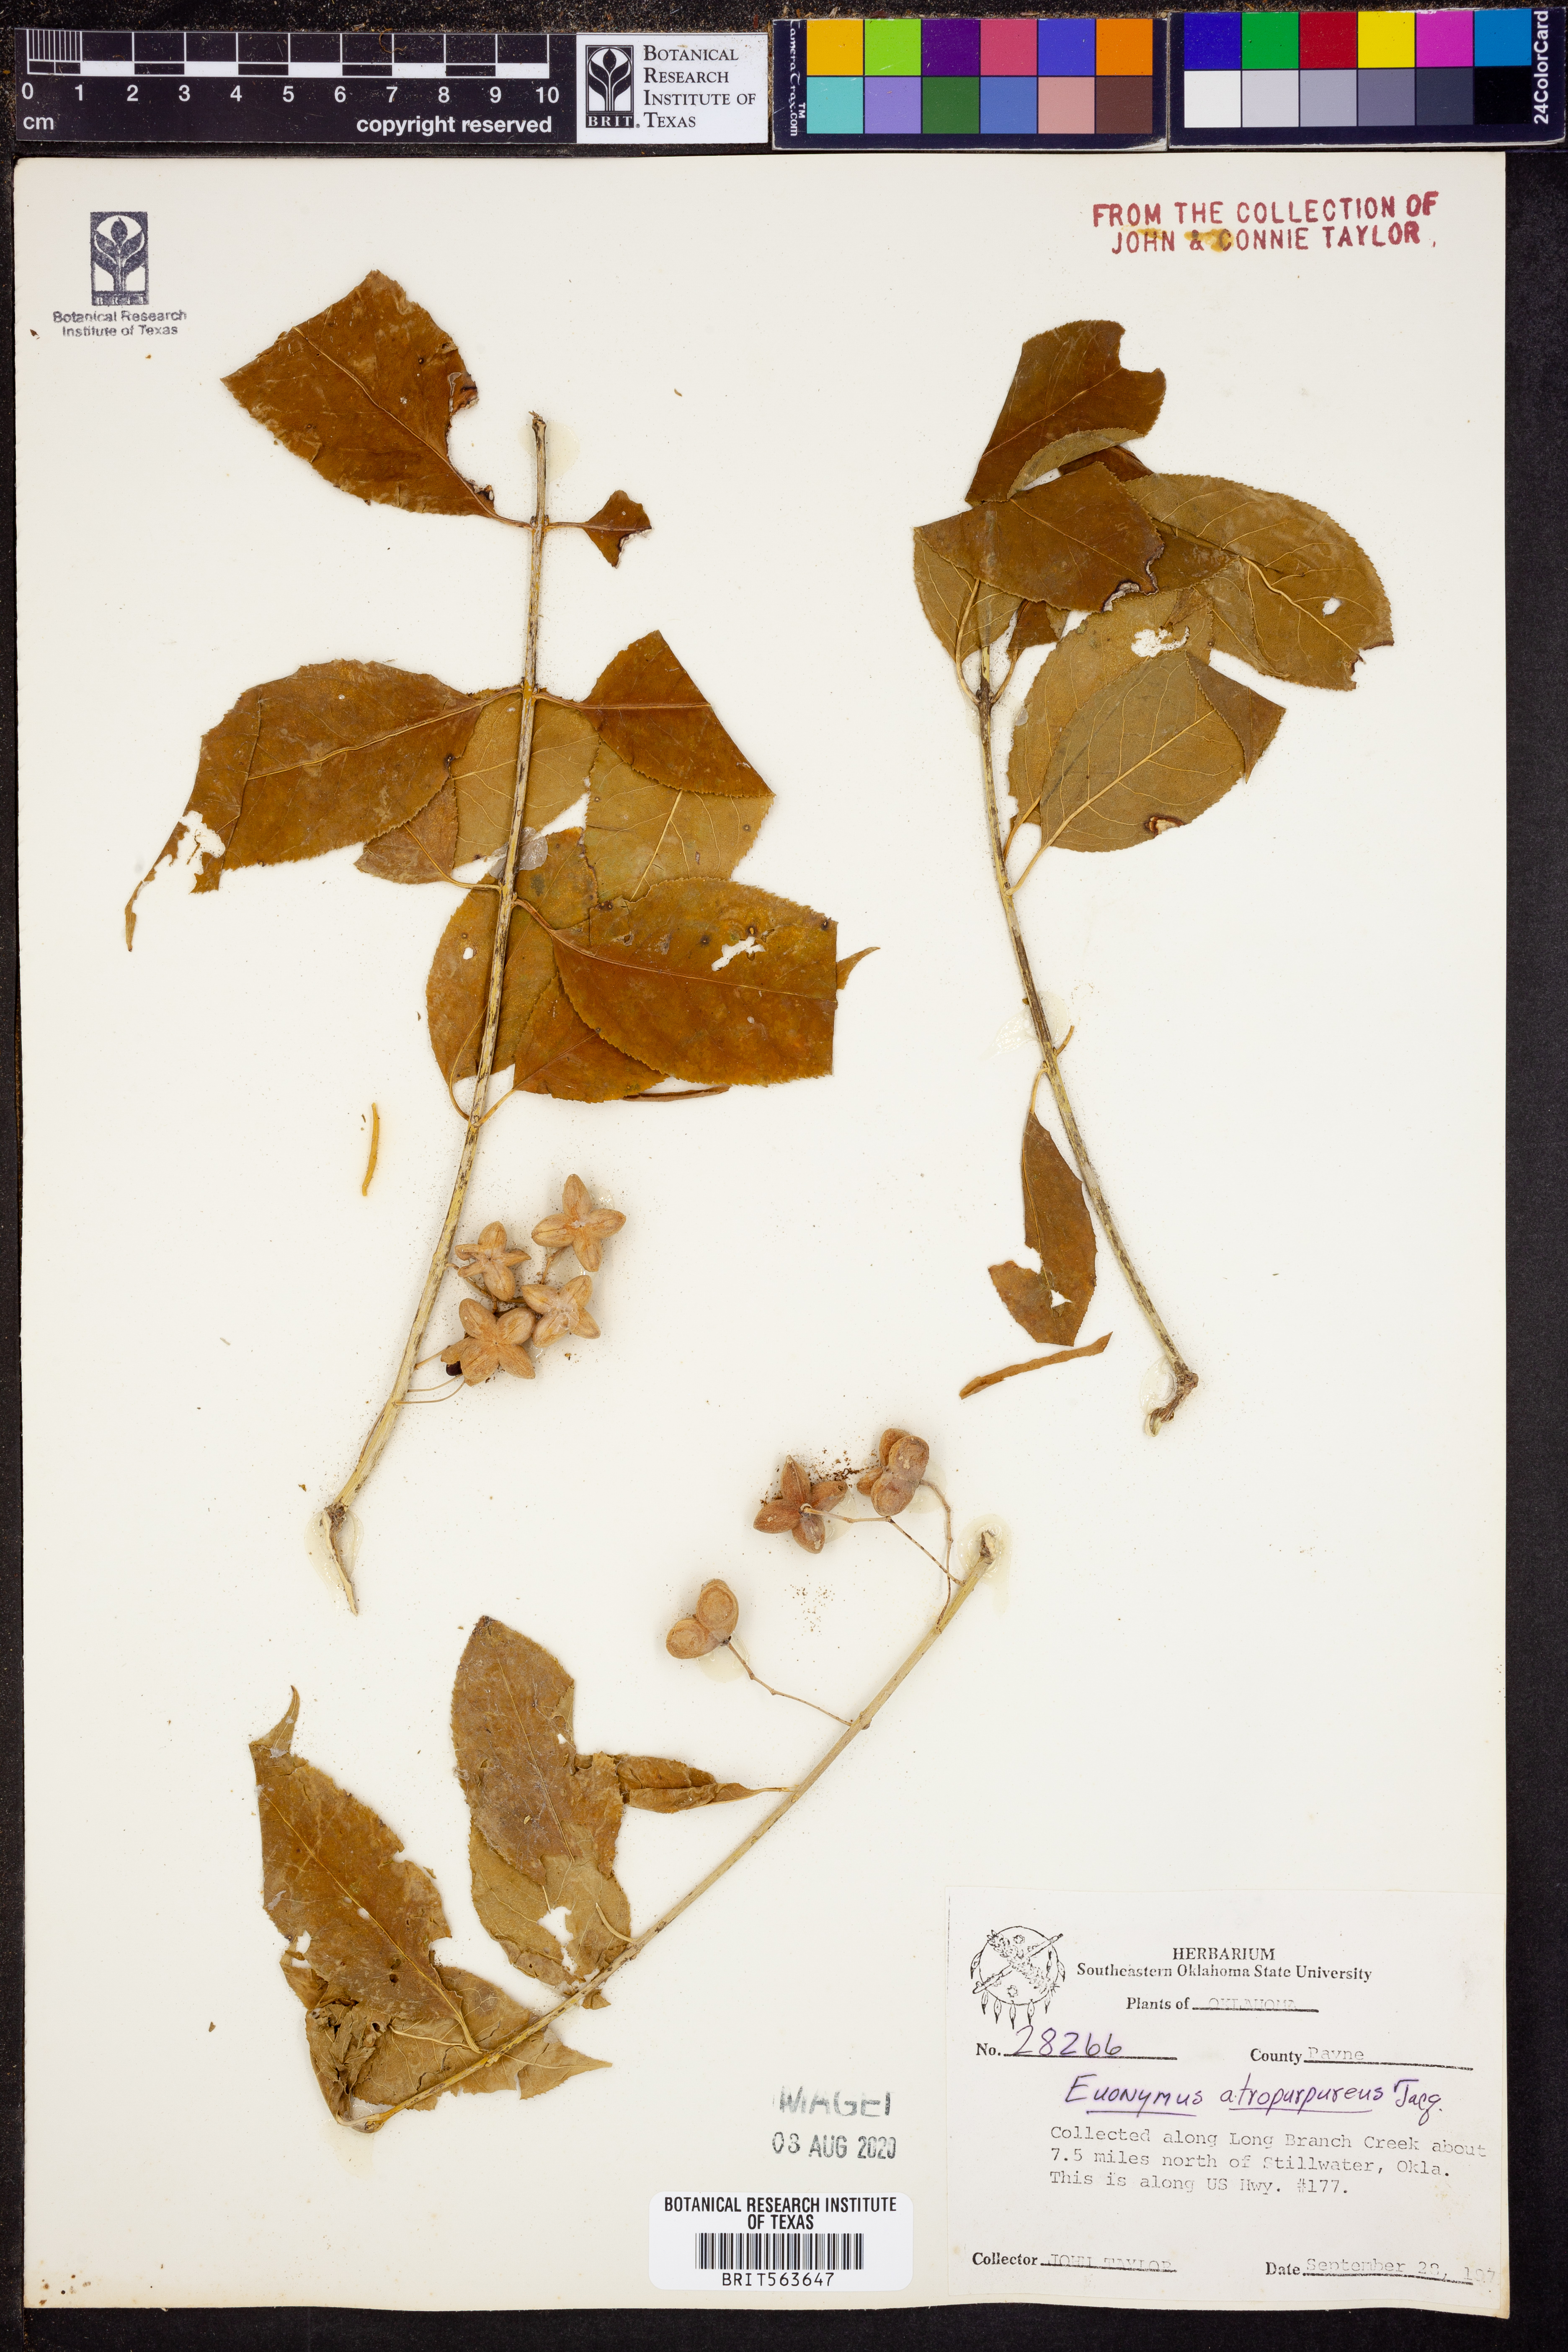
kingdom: Plantae
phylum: Tracheophyta
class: Magnoliopsida
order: Celastrales
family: Celastraceae
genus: Euonymus
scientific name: Euonymus atropurpureus
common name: Eastern wahoo
